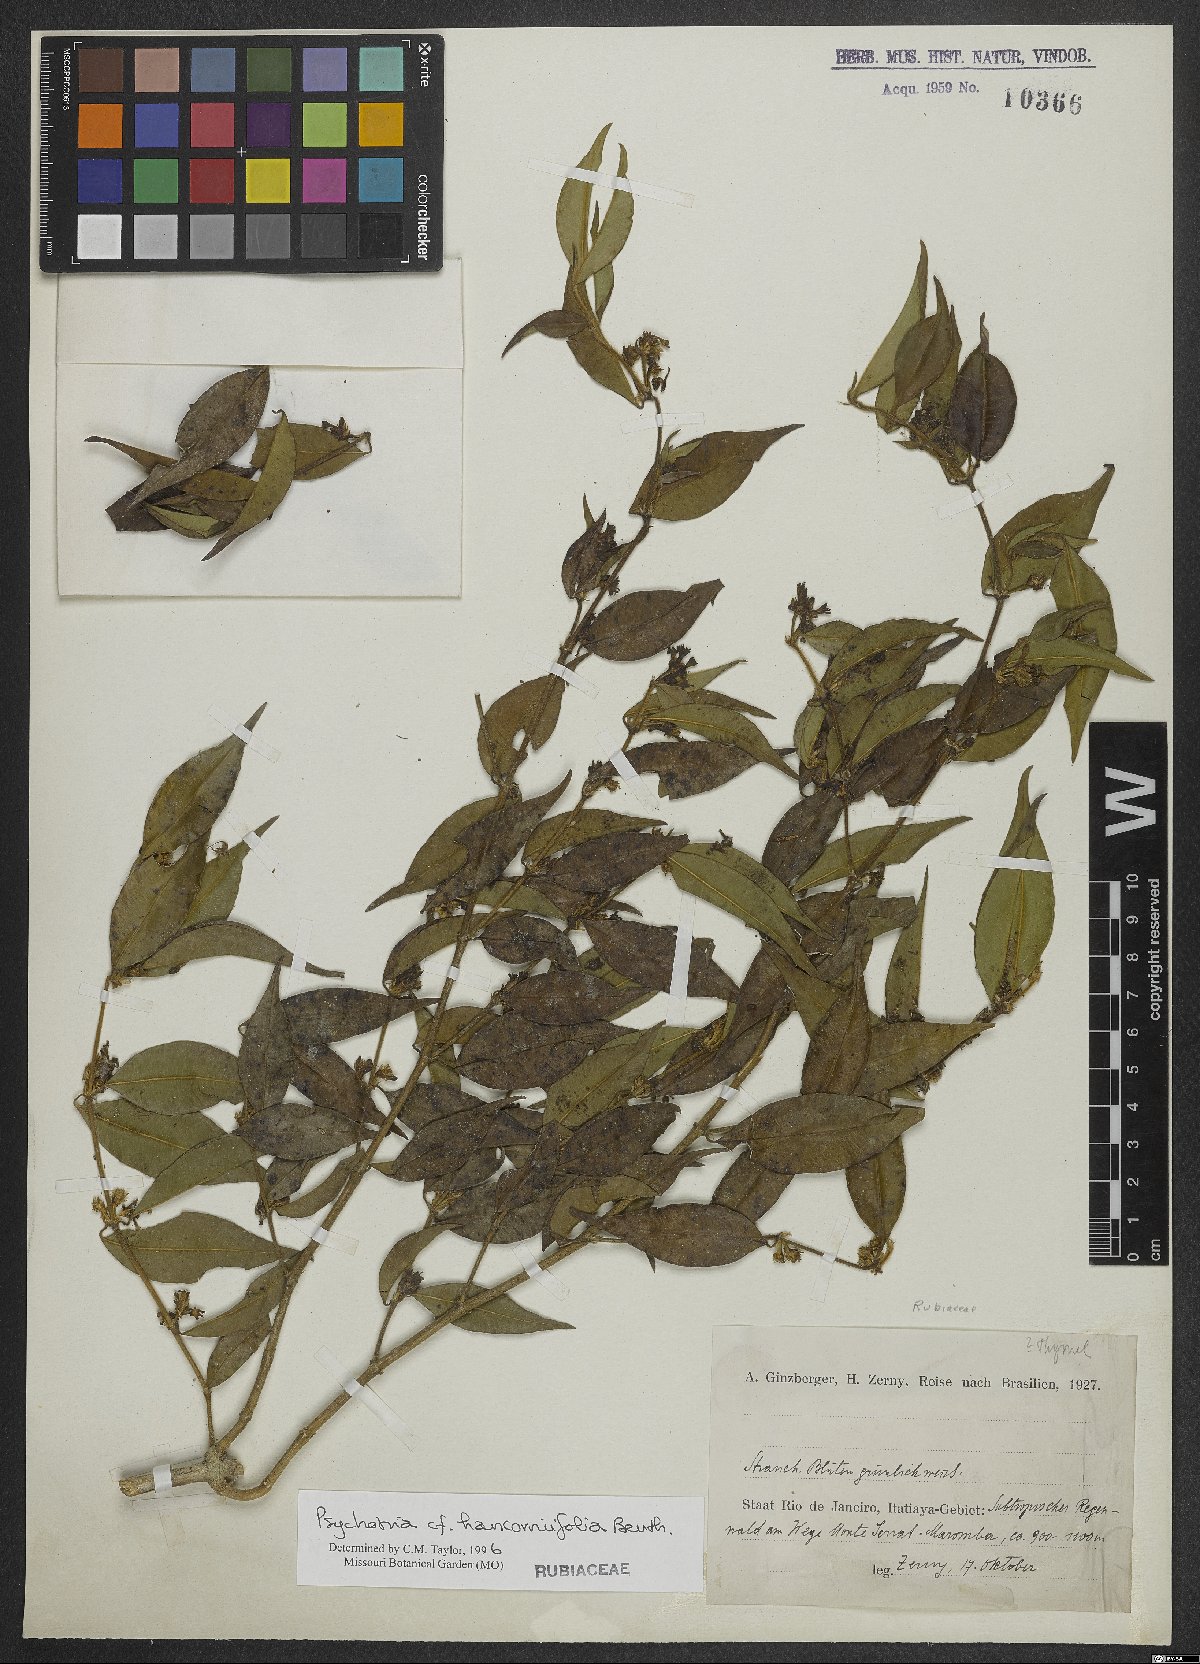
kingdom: Plantae
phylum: Tracheophyta
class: Magnoliopsida
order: Gentianales
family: Rubiaceae
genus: Palicourea
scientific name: Palicourea sessilis
